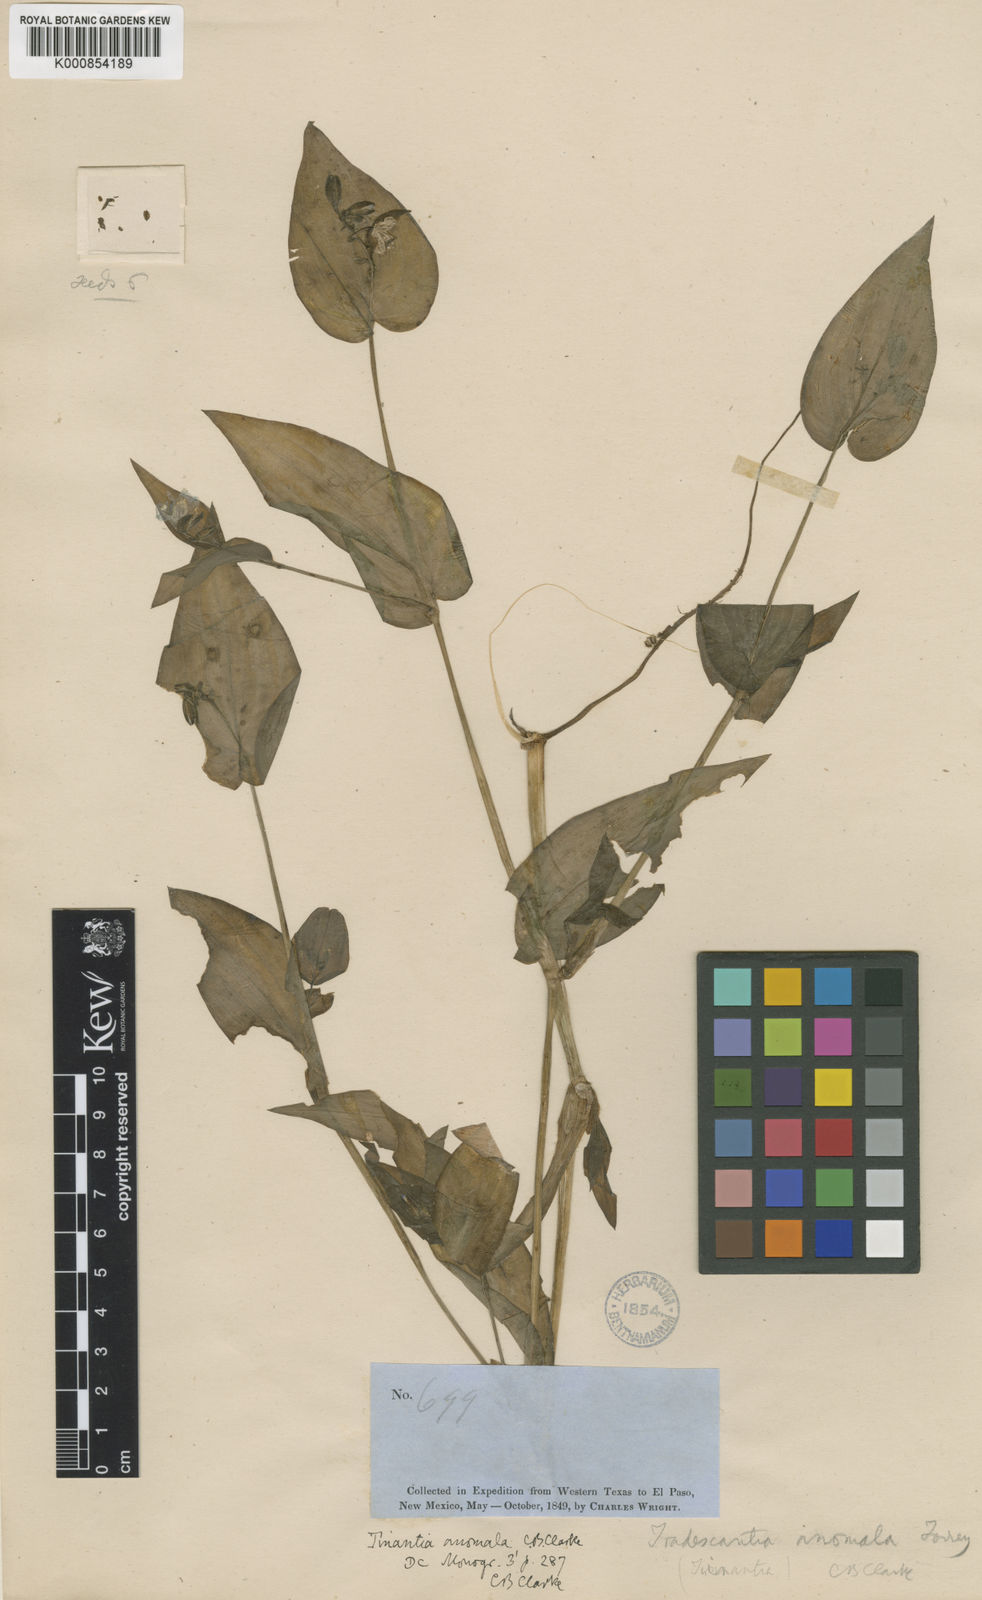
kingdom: Plantae
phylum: Tracheophyta
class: Liliopsida
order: Commelinales
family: Commelinaceae
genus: Tinantia
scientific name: Tinantia anomala
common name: False dayflower
